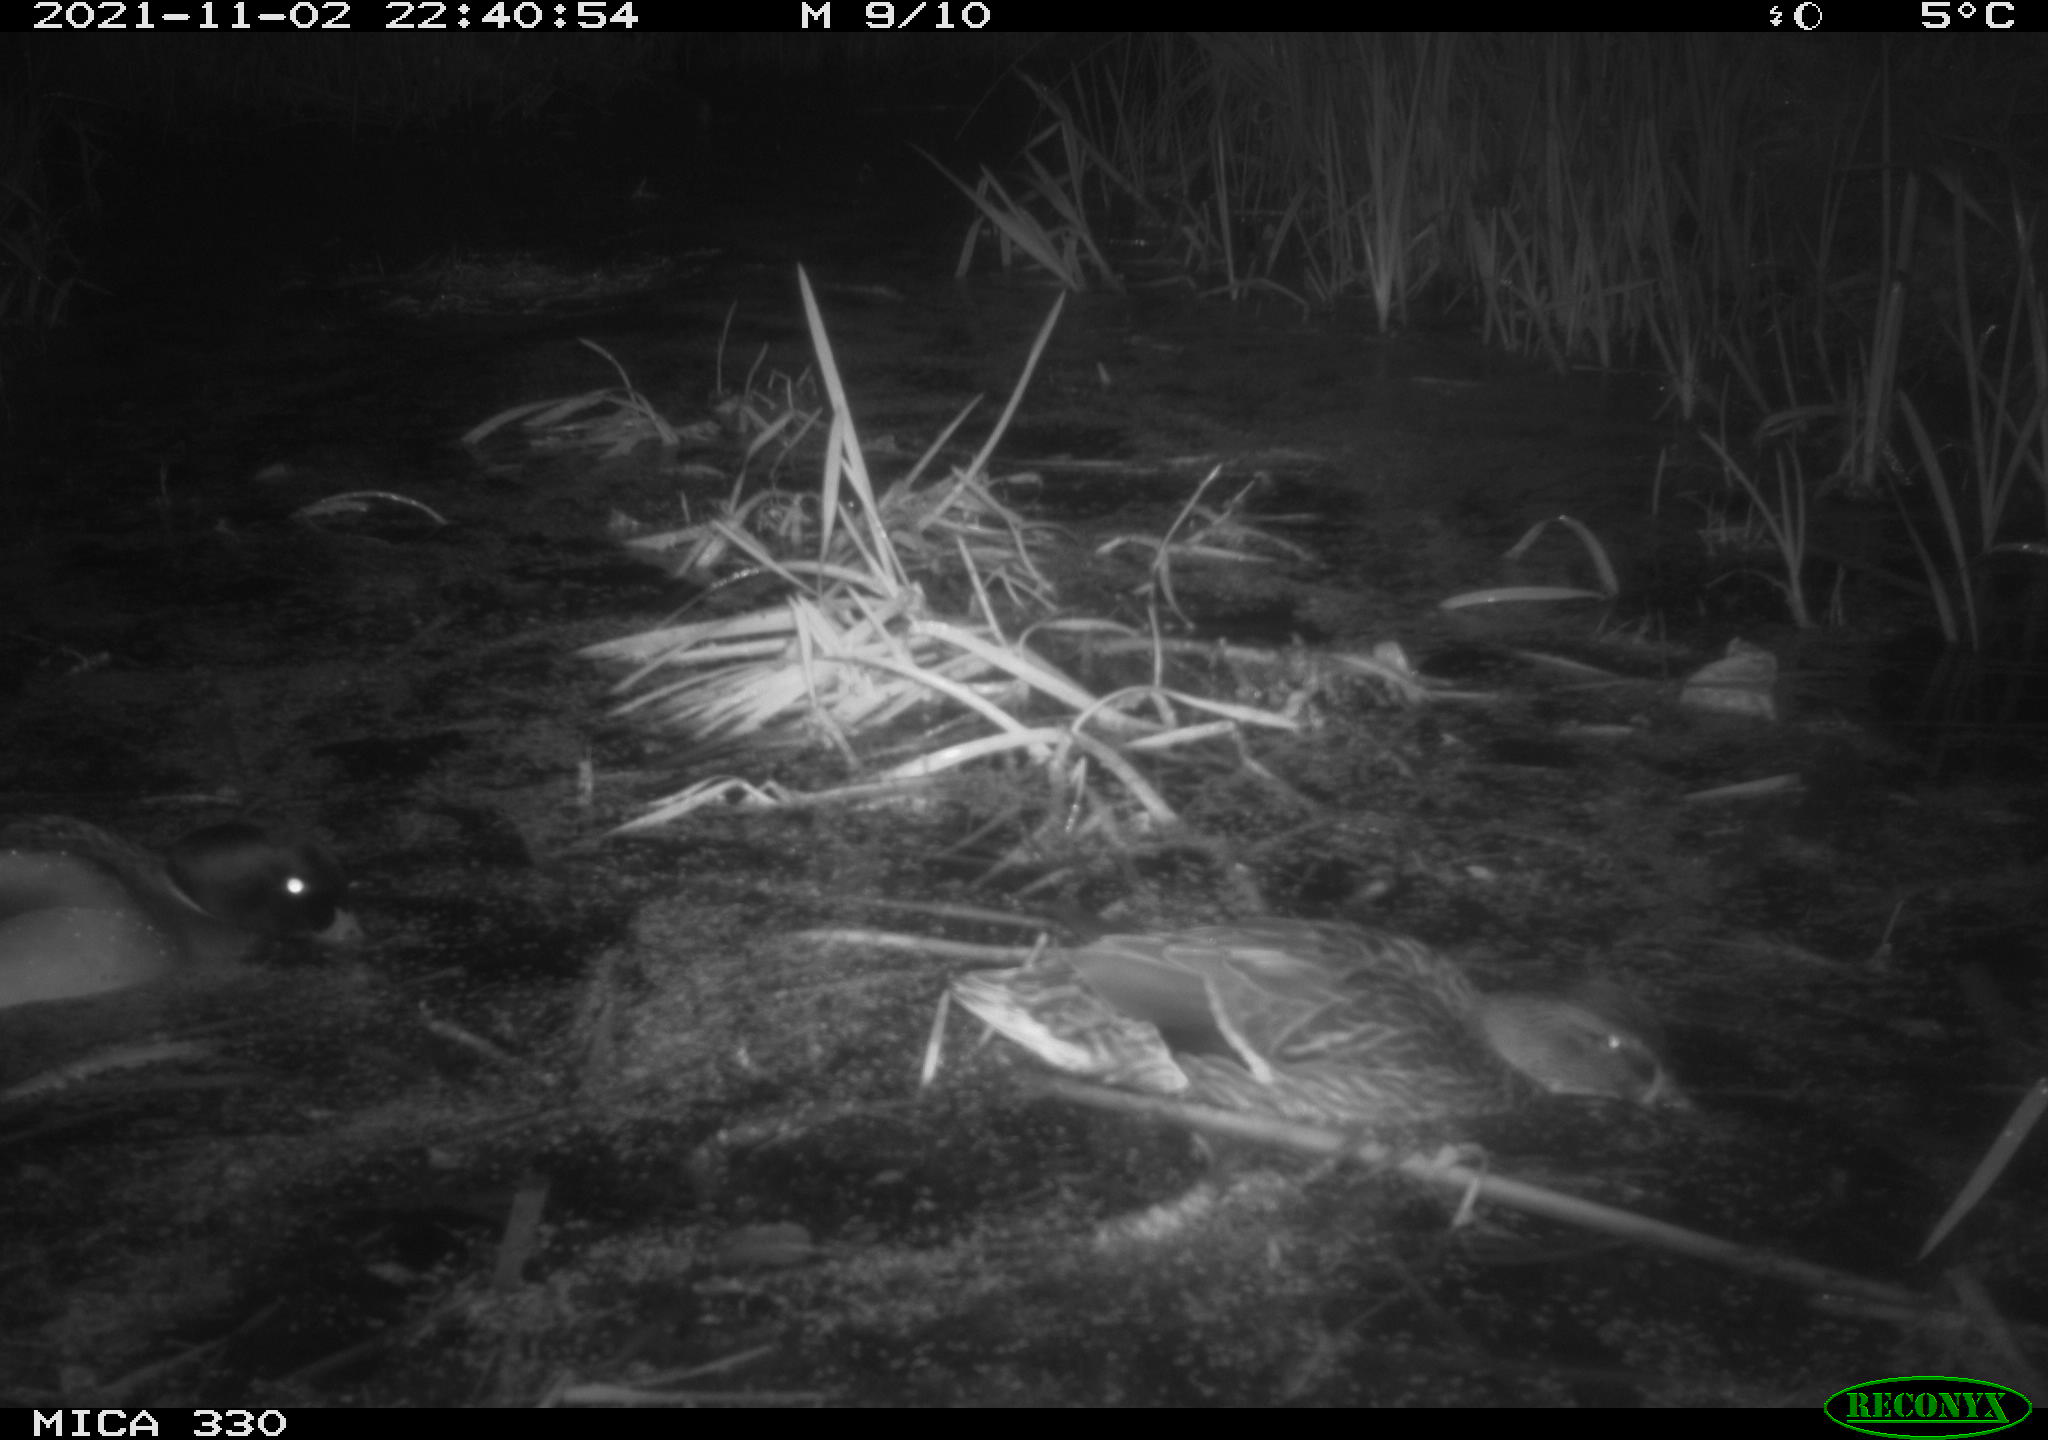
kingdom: Animalia
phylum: Chordata
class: Aves
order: Anseriformes
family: Anatidae
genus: Anas
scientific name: Anas platyrhynchos
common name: Mallard
